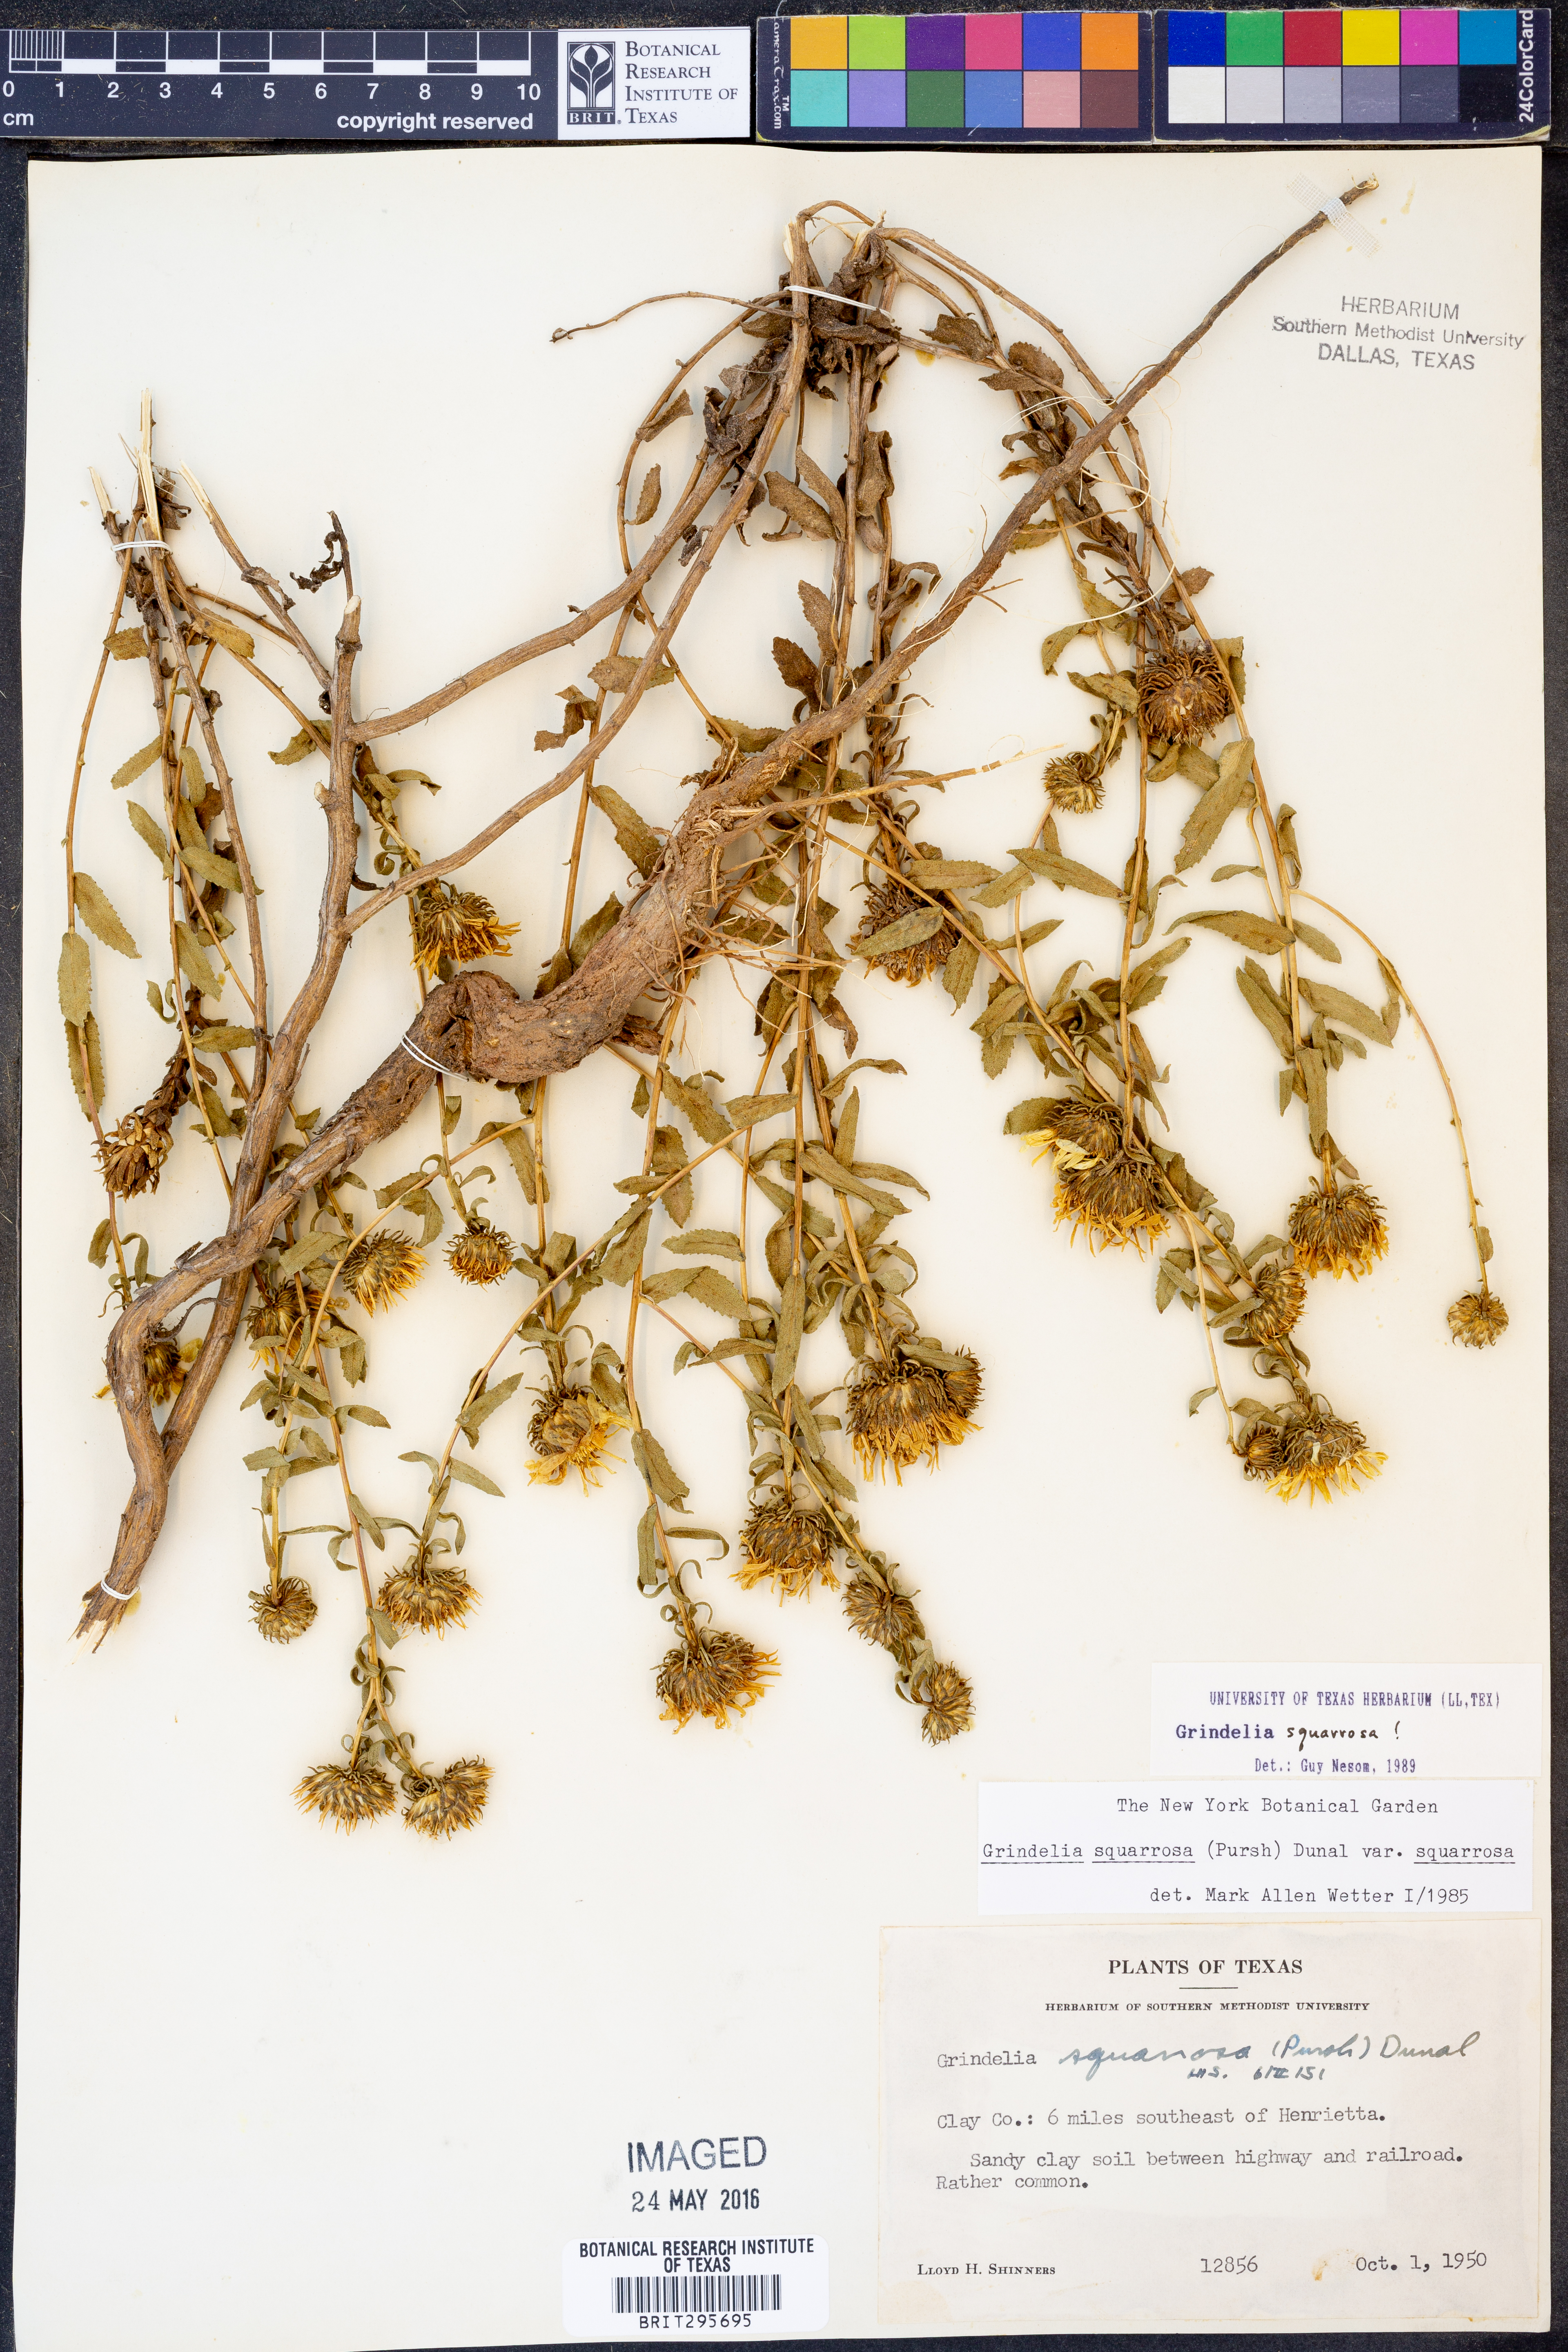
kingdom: Plantae
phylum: Tracheophyta
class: Magnoliopsida
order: Asterales
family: Asteraceae
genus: Grindelia
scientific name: Grindelia squarrosa
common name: Curly-cup gumweed
